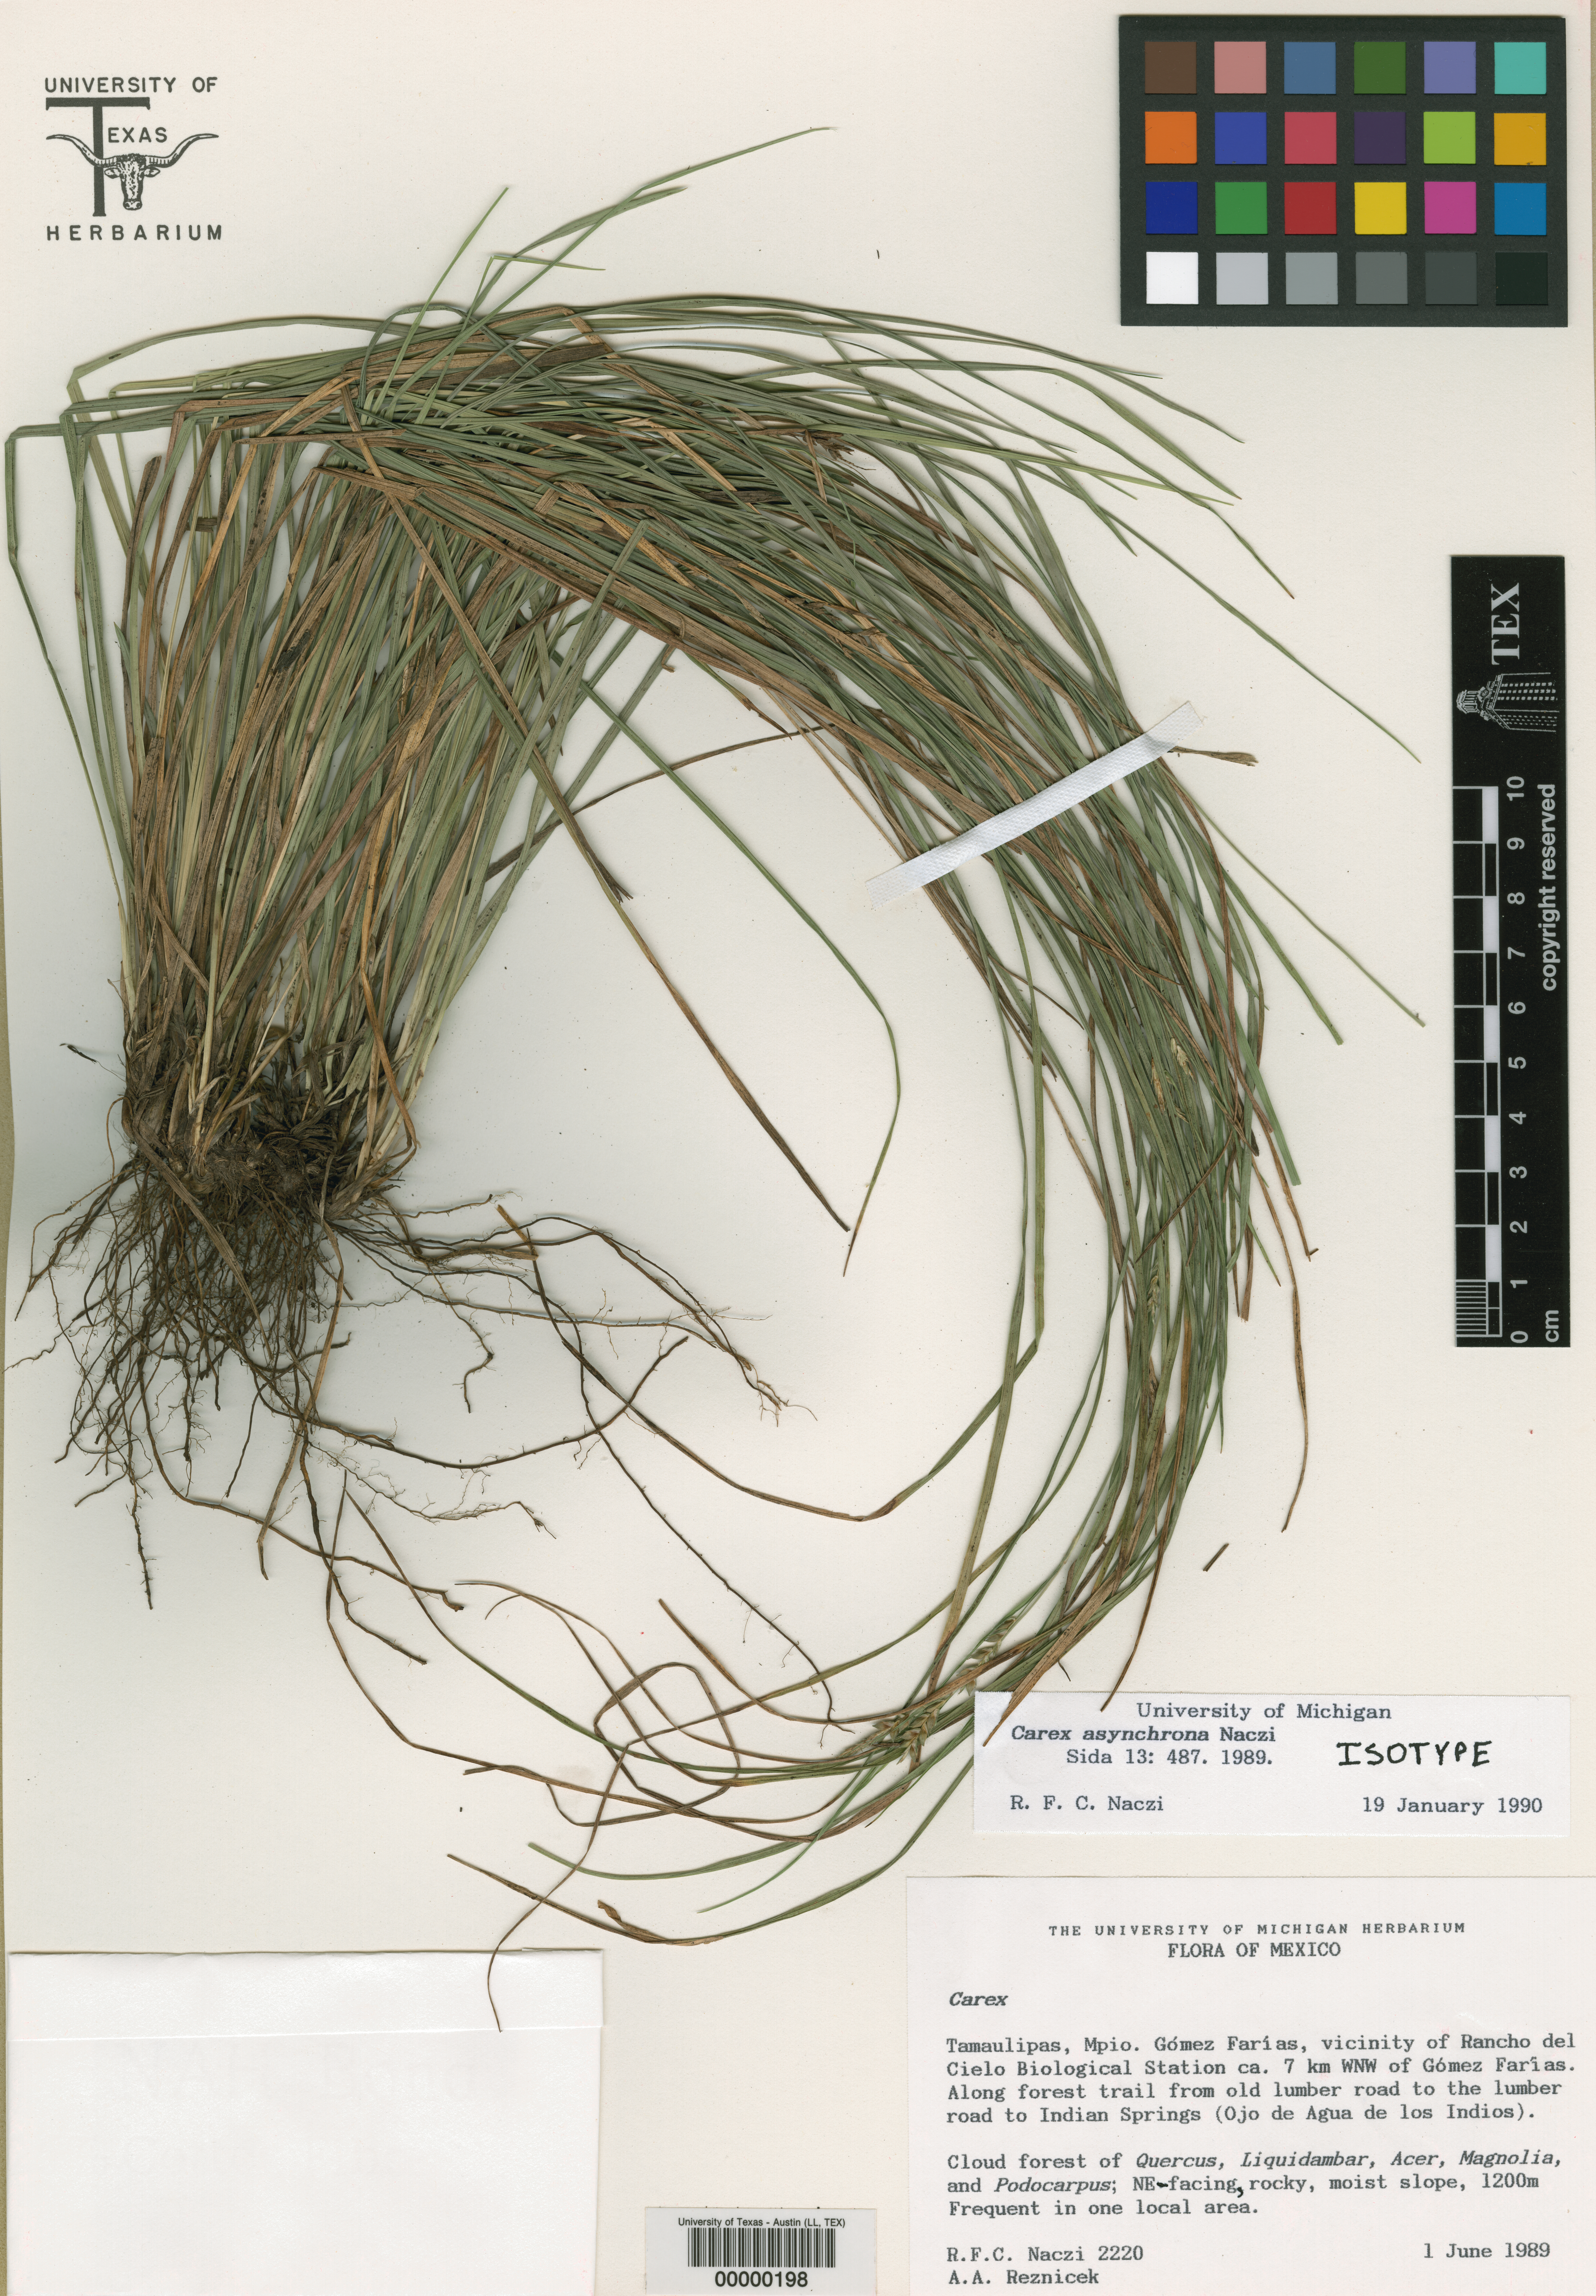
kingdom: Plantae
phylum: Tracheophyta
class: Magnoliopsida
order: Malpighiales
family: Hypericaceae
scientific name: Hypericaceae
